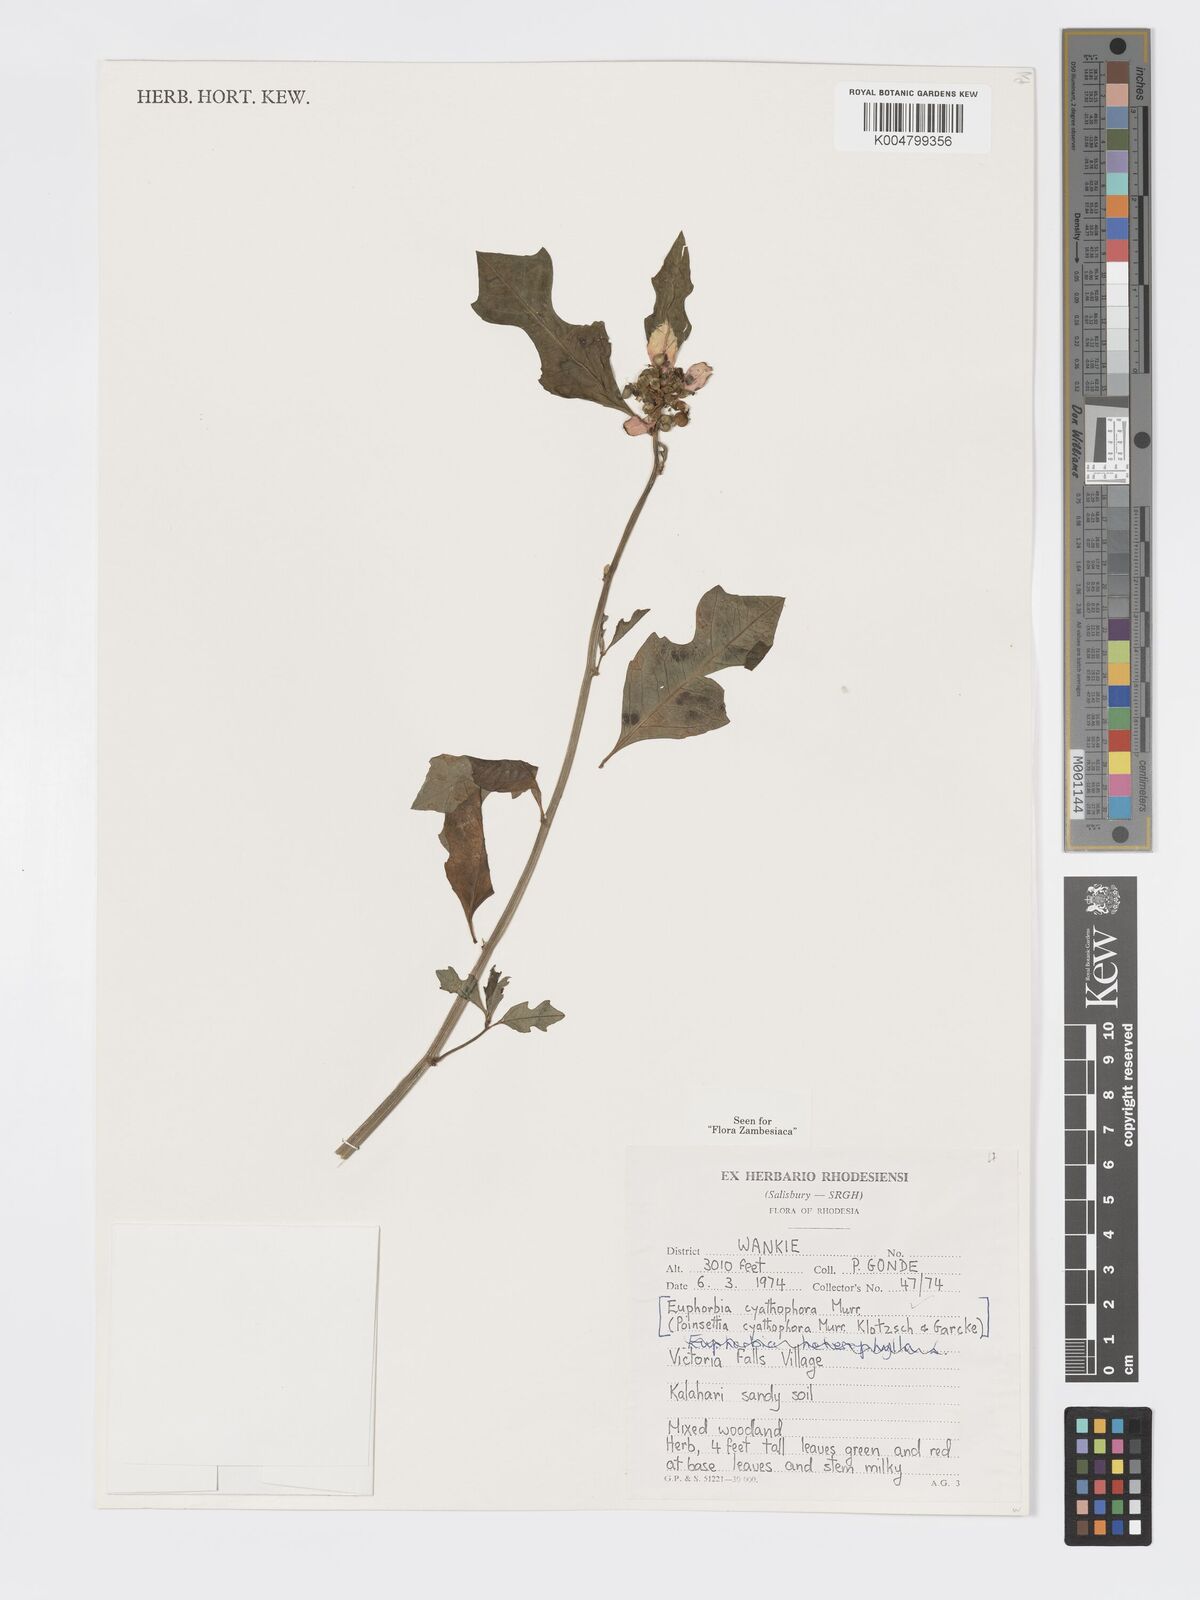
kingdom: Plantae
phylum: Tracheophyta
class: Magnoliopsida
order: Malpighiales
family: Euphorbiaceae
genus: Euphorbia
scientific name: Euphorbia heterophylla
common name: Mexican fireplant
